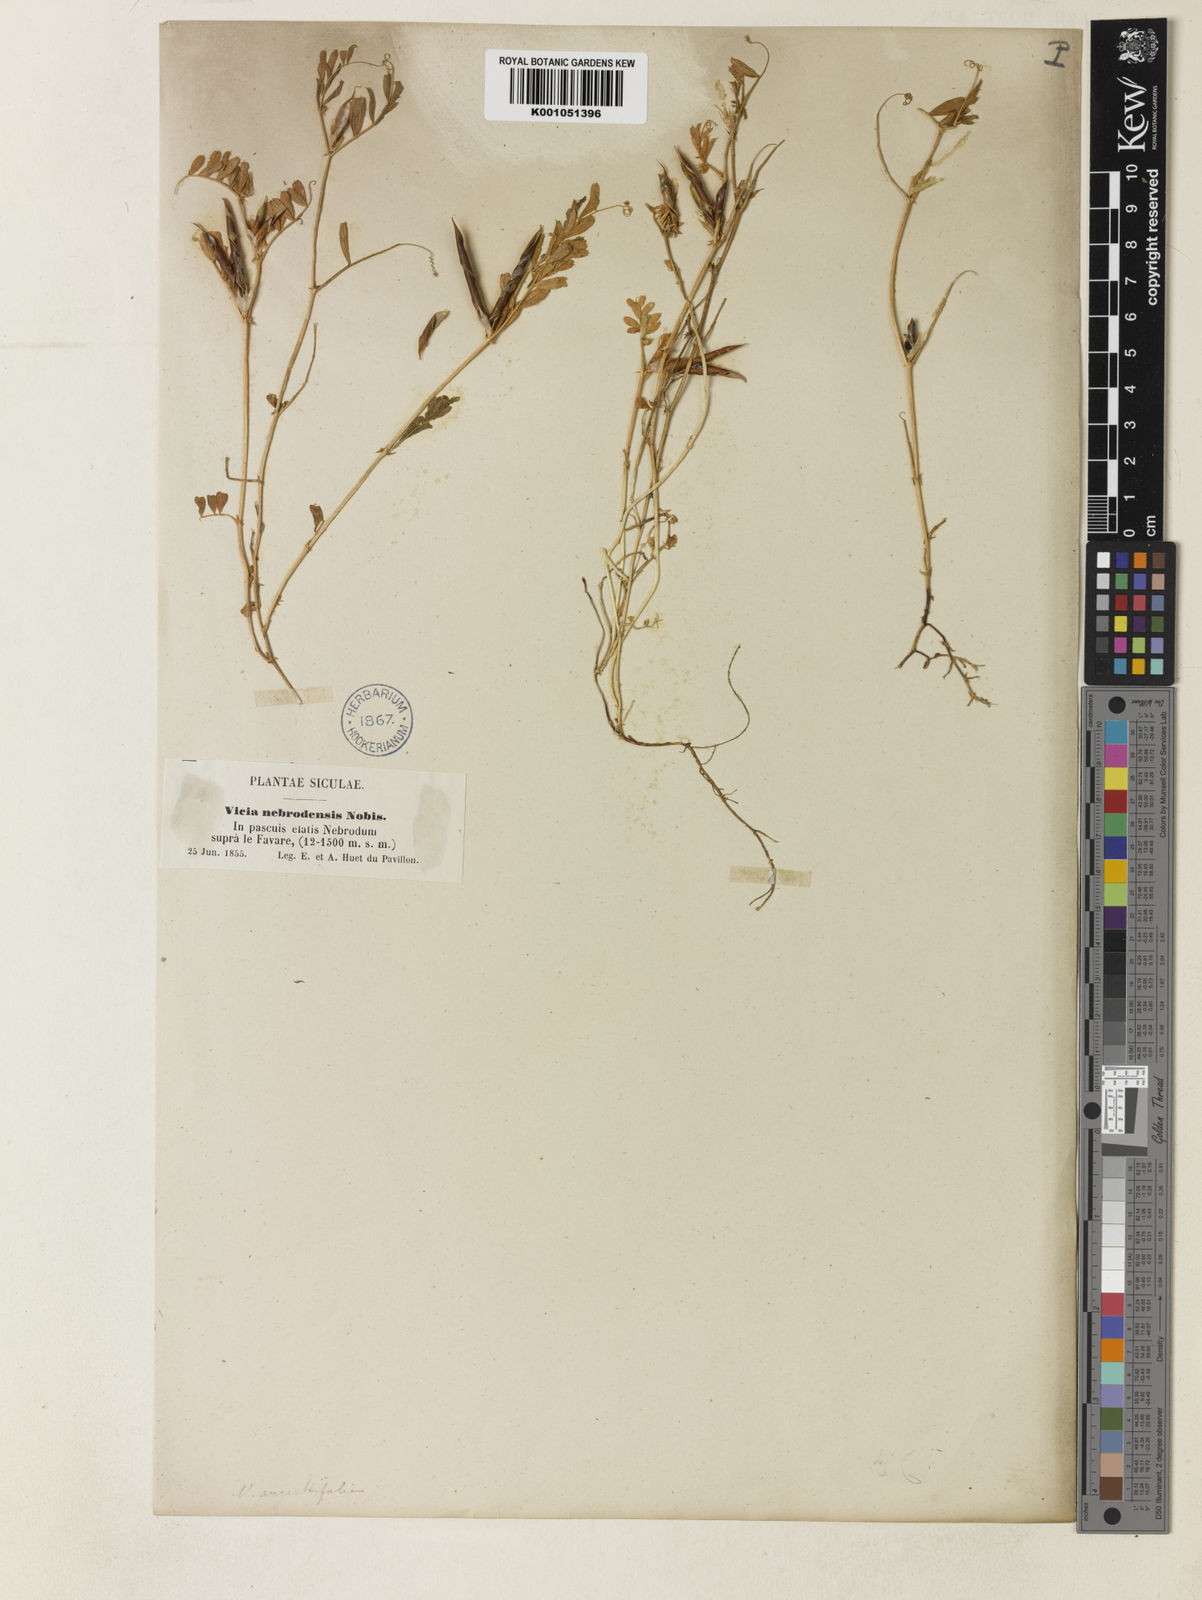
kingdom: Plantae
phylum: Tracheophyta
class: Magnoliopsida
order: Fabales
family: Fabaceae
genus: Vicia
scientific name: Vicia sativa
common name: Garden vetch
